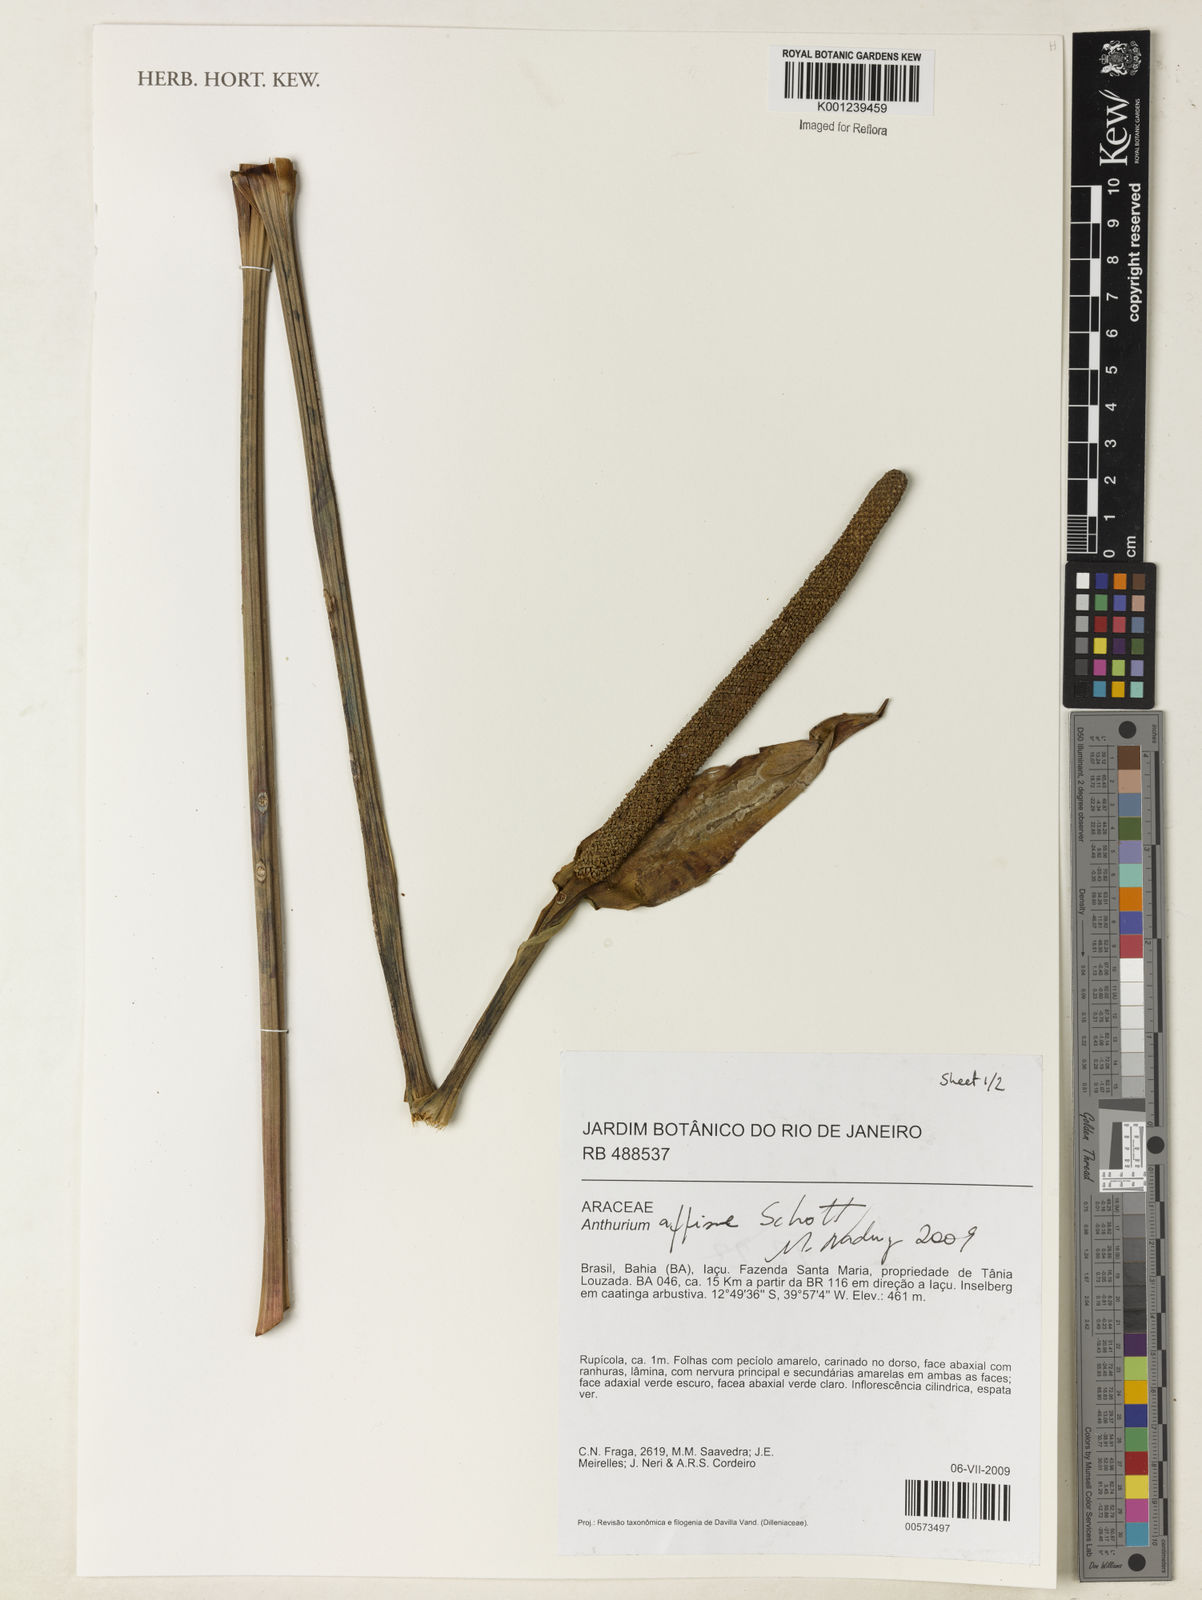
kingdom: Plantae
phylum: Tracheophyta
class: Liliopsida
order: Alismatales
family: Araceae
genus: Anthurium
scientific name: Anthurium affine
